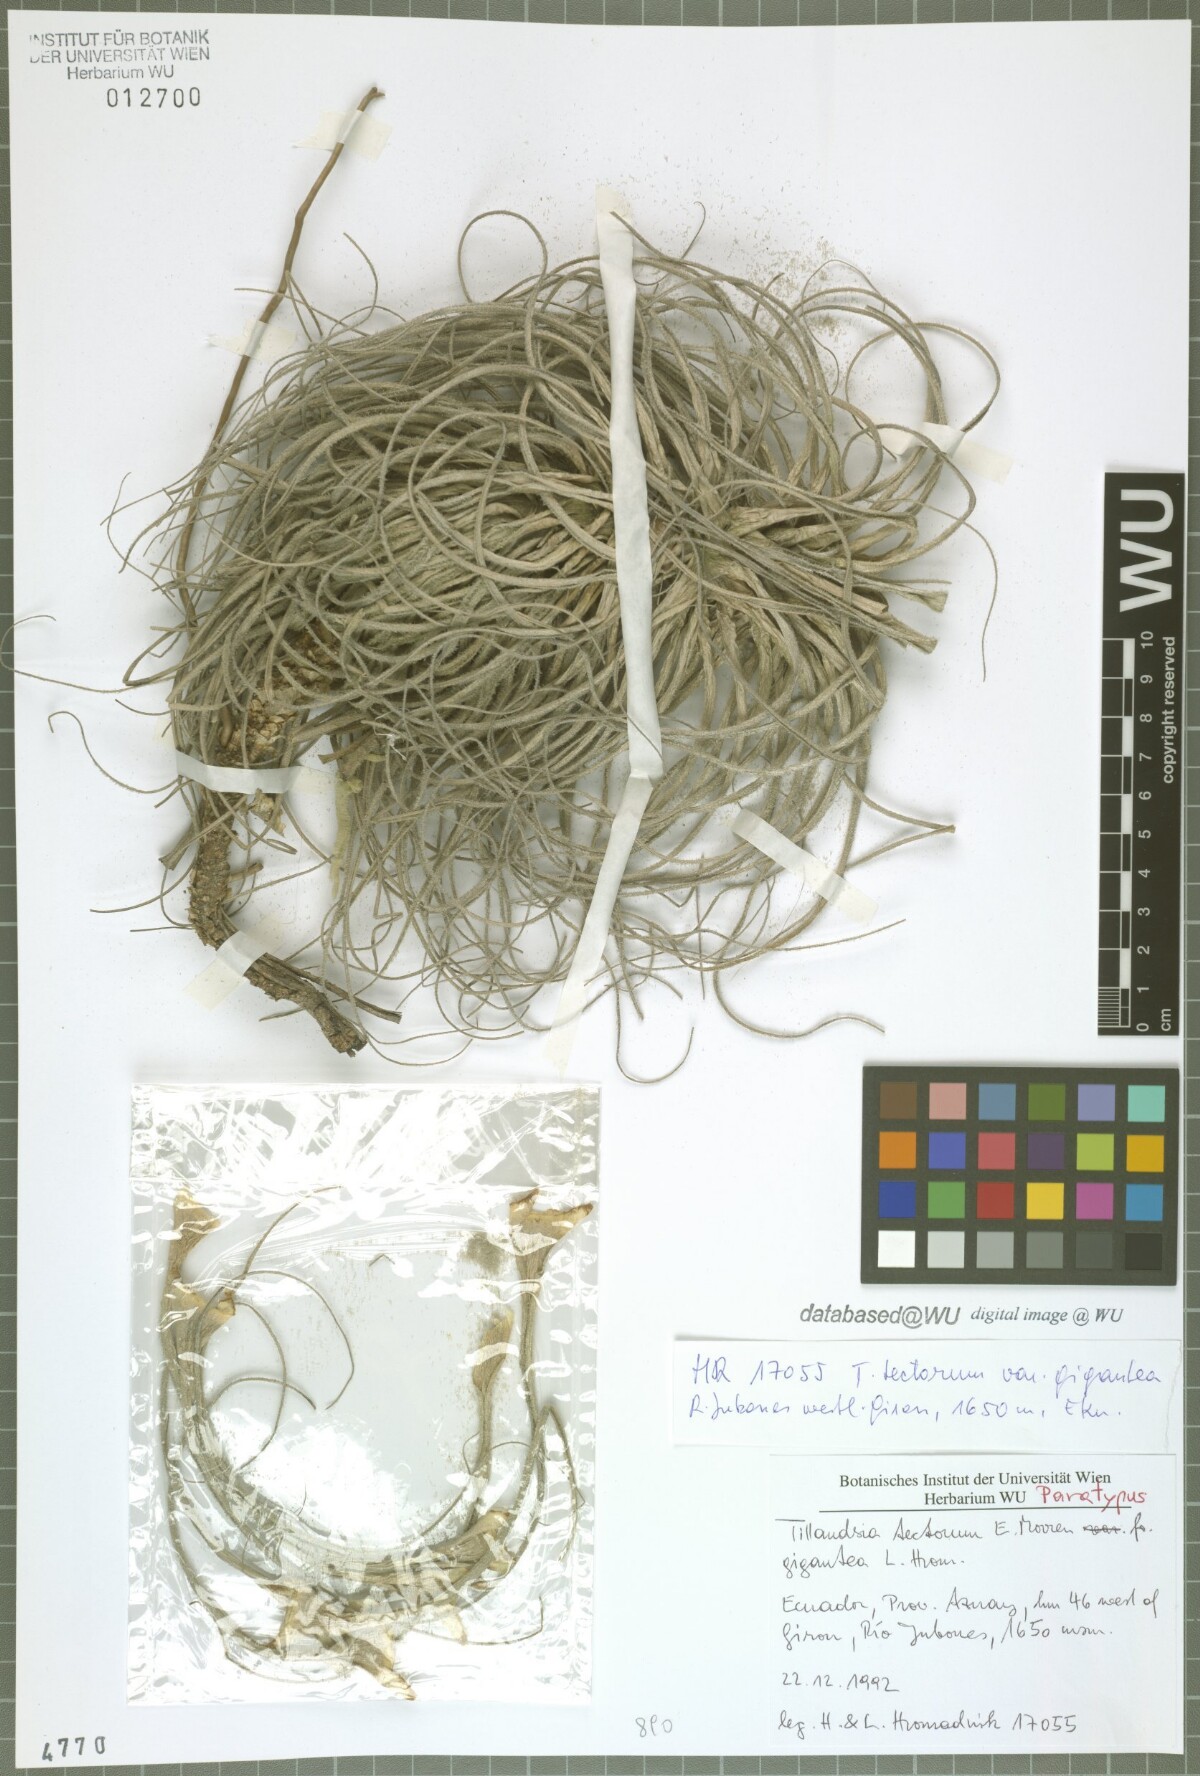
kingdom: Plantae
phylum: Tracheophyta
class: Liliopsida
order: Poales
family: Bromeliaceae
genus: Tillandsia
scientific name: Tillandsia tectorum
